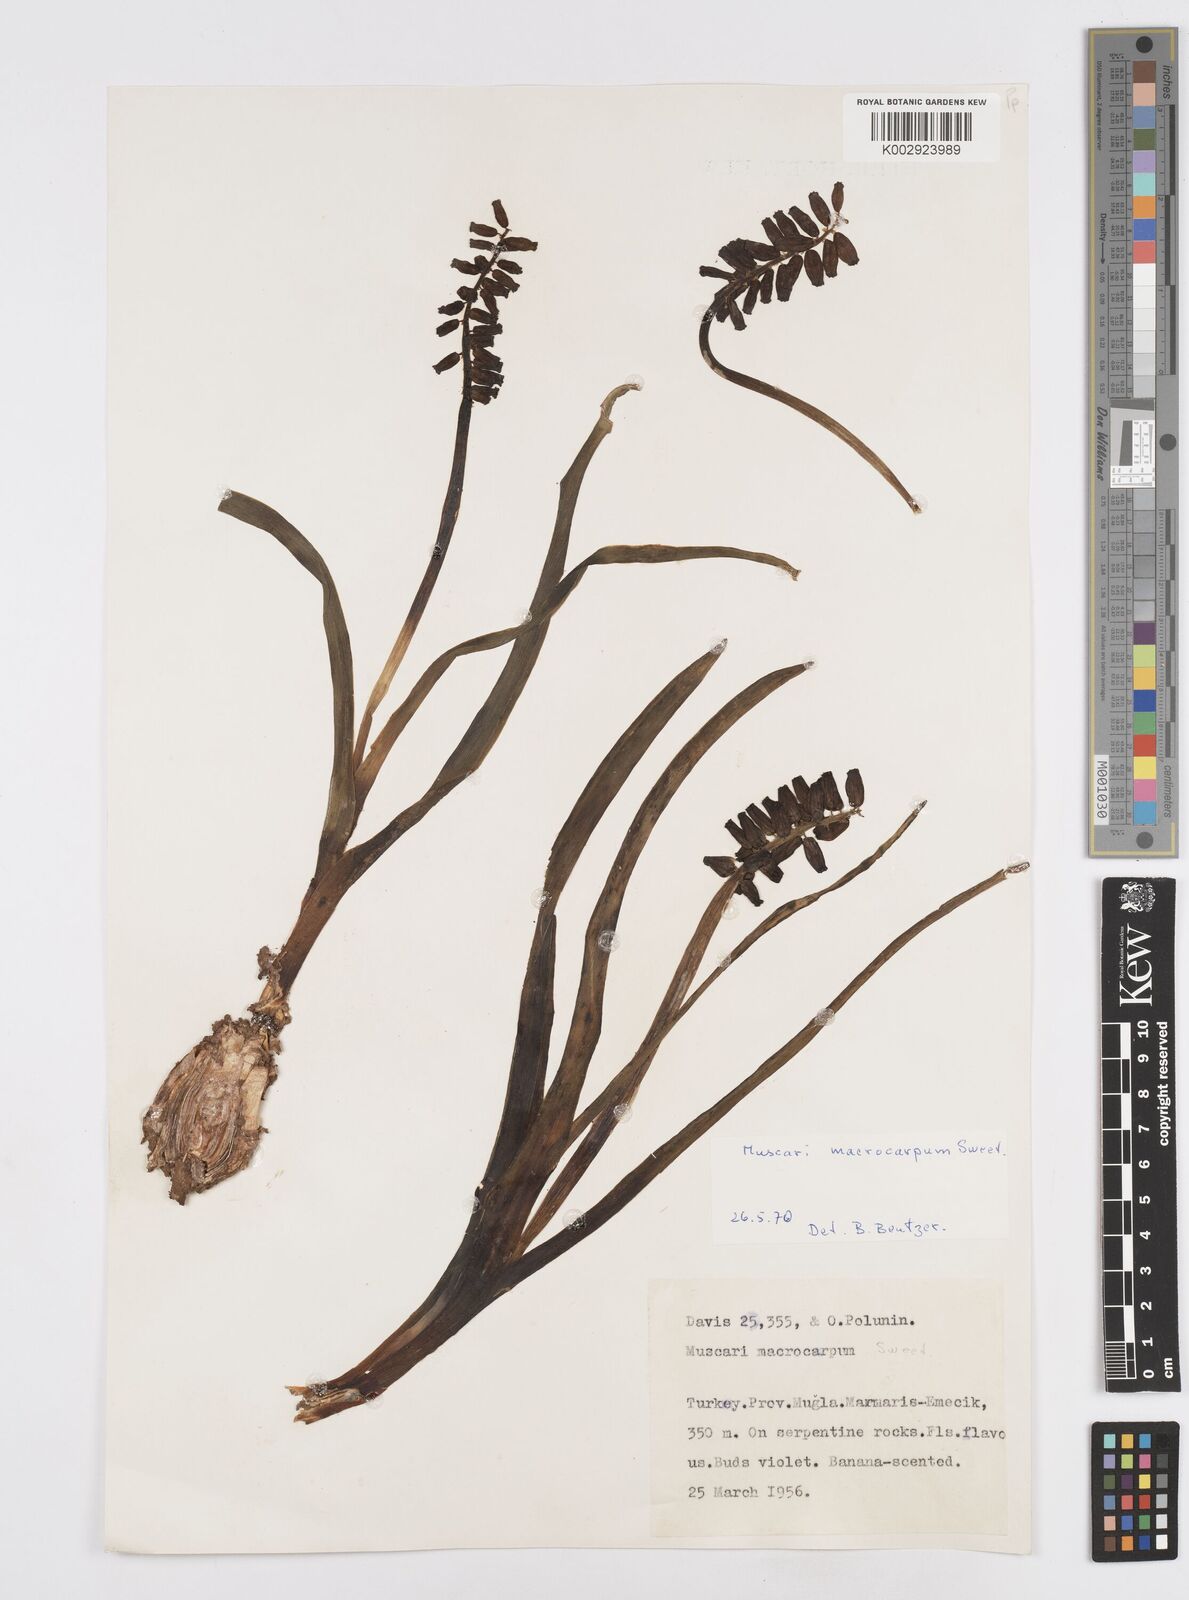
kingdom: Plantae
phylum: Tracheophyta
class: Liliopsida
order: Asparagales
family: Asparagaceae
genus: Muscarimia
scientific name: Muscarimia macrocarpa
